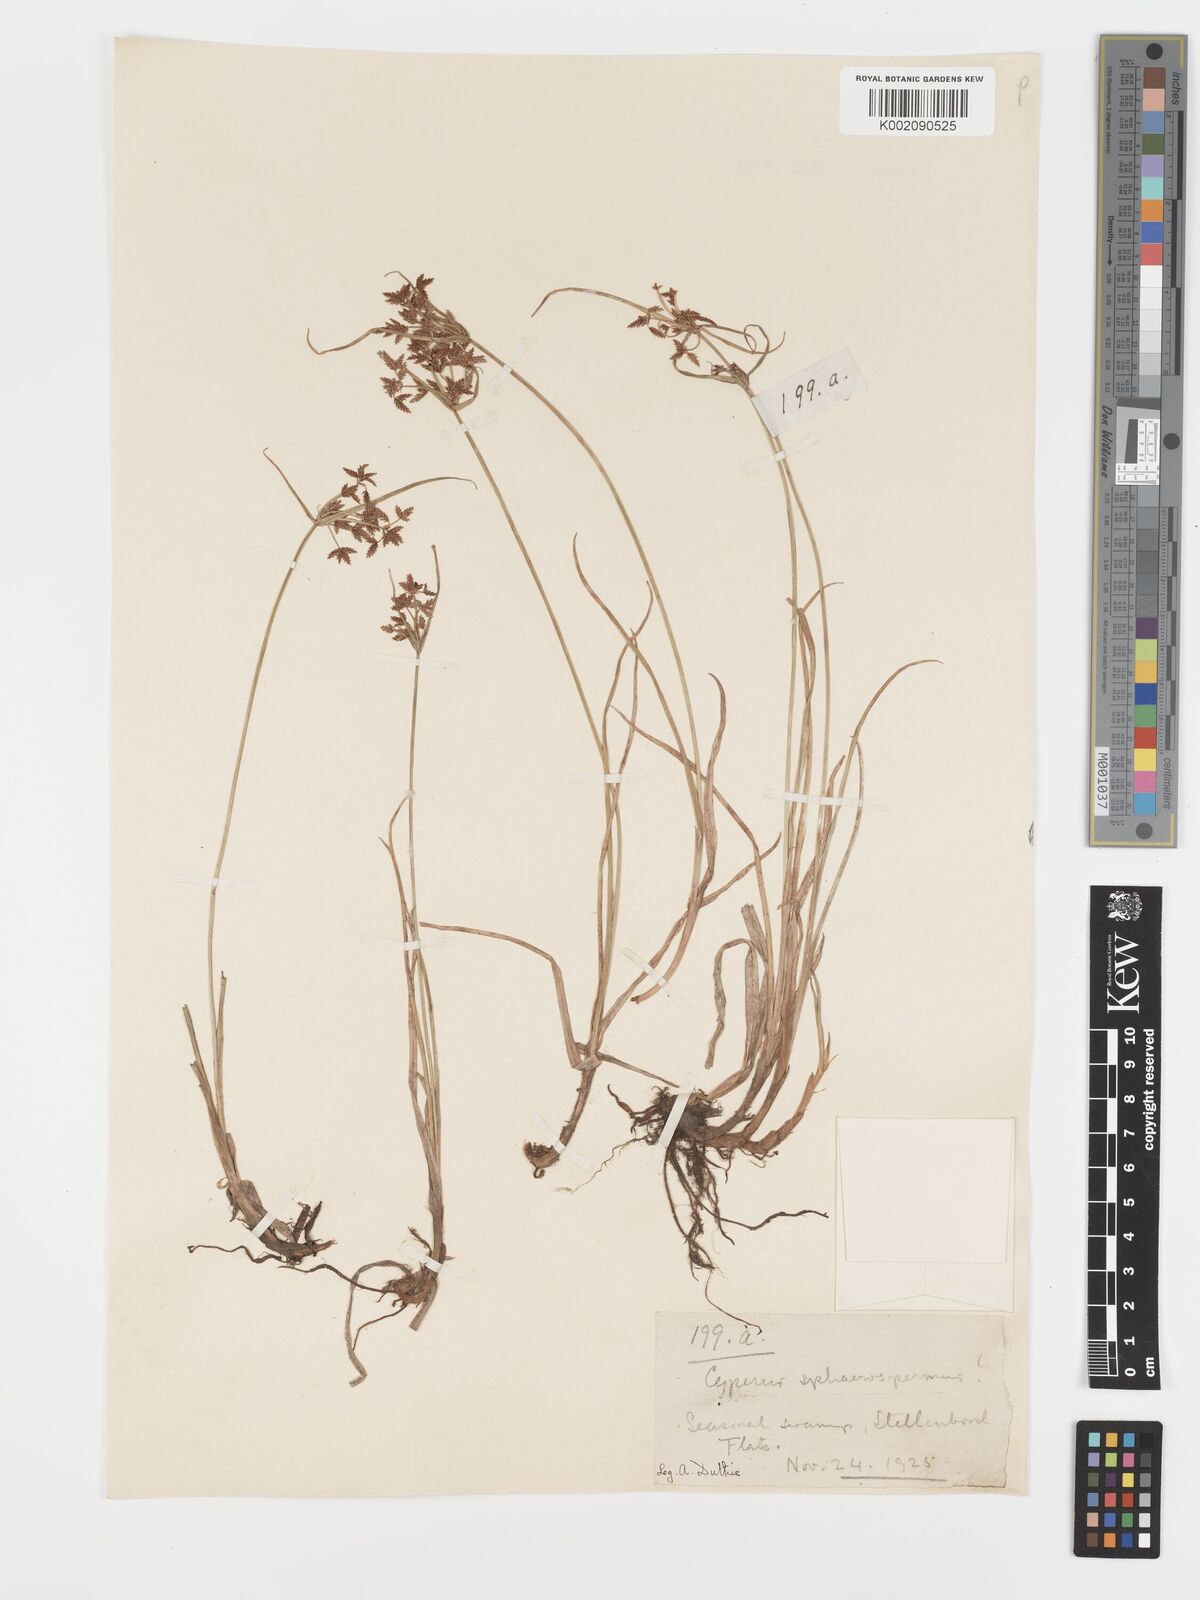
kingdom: Plantae
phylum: Tracheophyta
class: Liliopsida
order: Poales
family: Cyperaceae
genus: Cyperus
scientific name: Cyperus sphaerospermus
